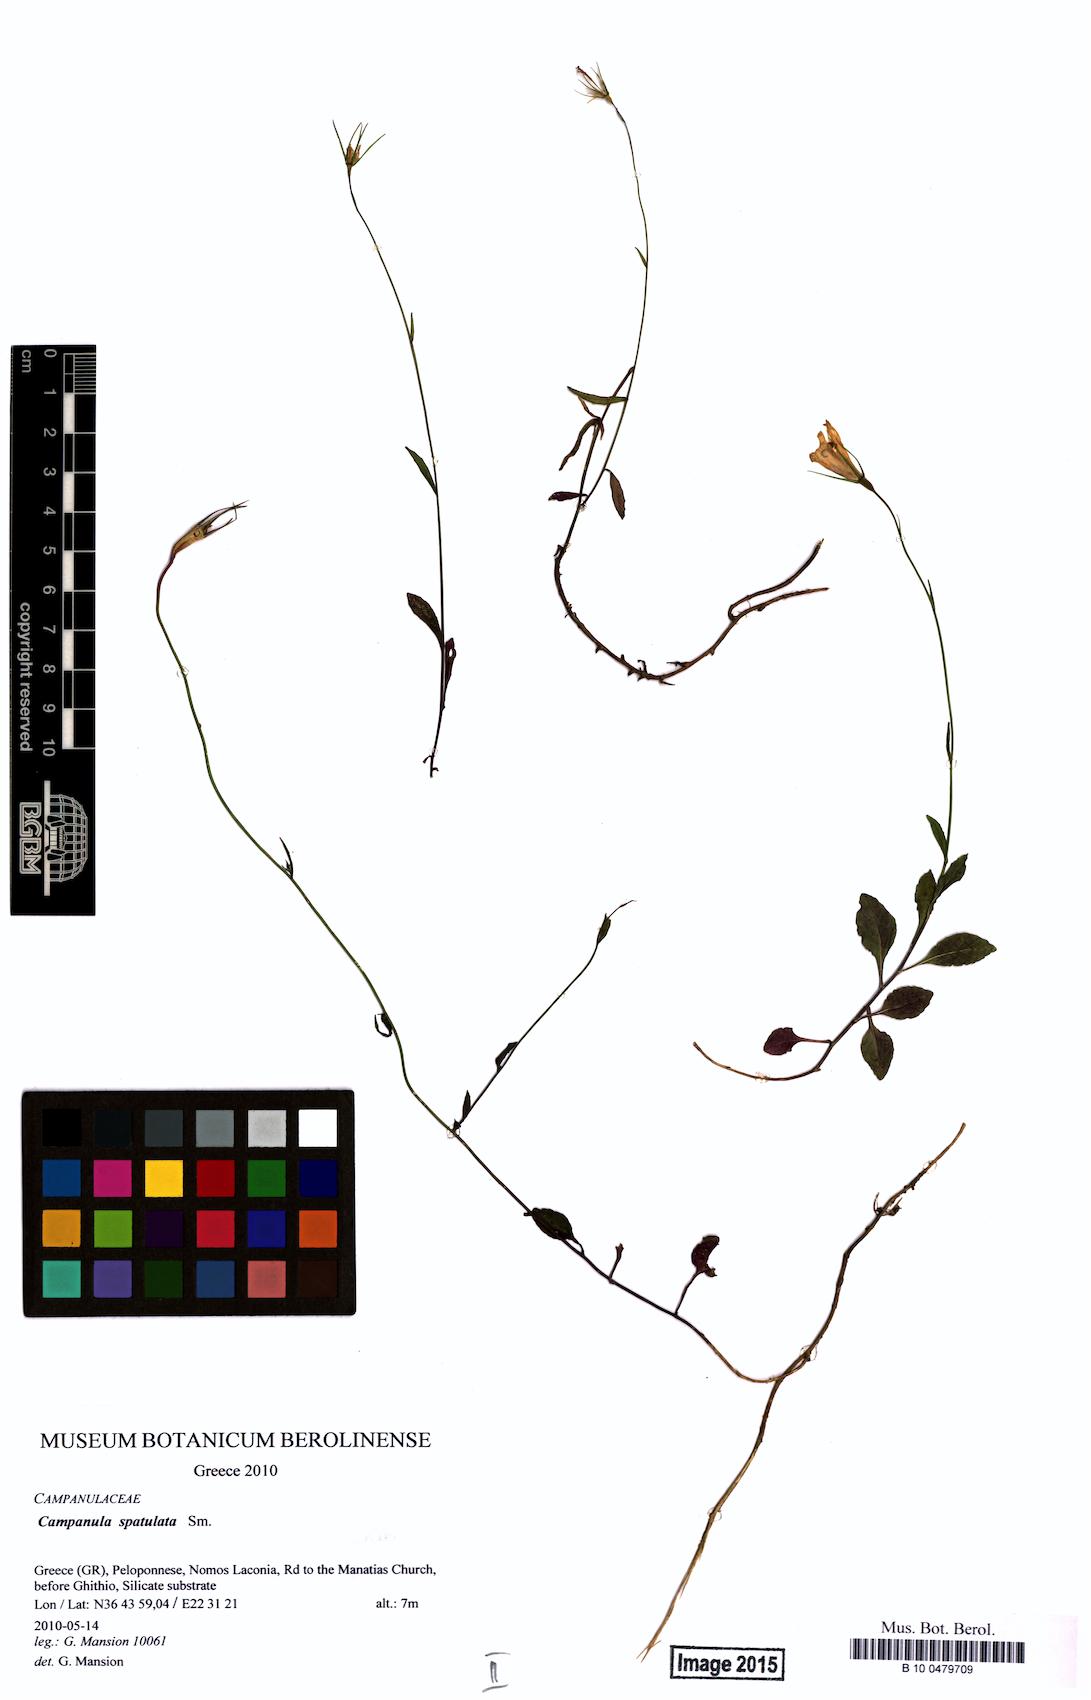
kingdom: Plantae
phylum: Tracheophyta
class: Magnoliopsida
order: Asterales
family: Campanulaceae
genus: Campanula
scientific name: Campanula spatulata
